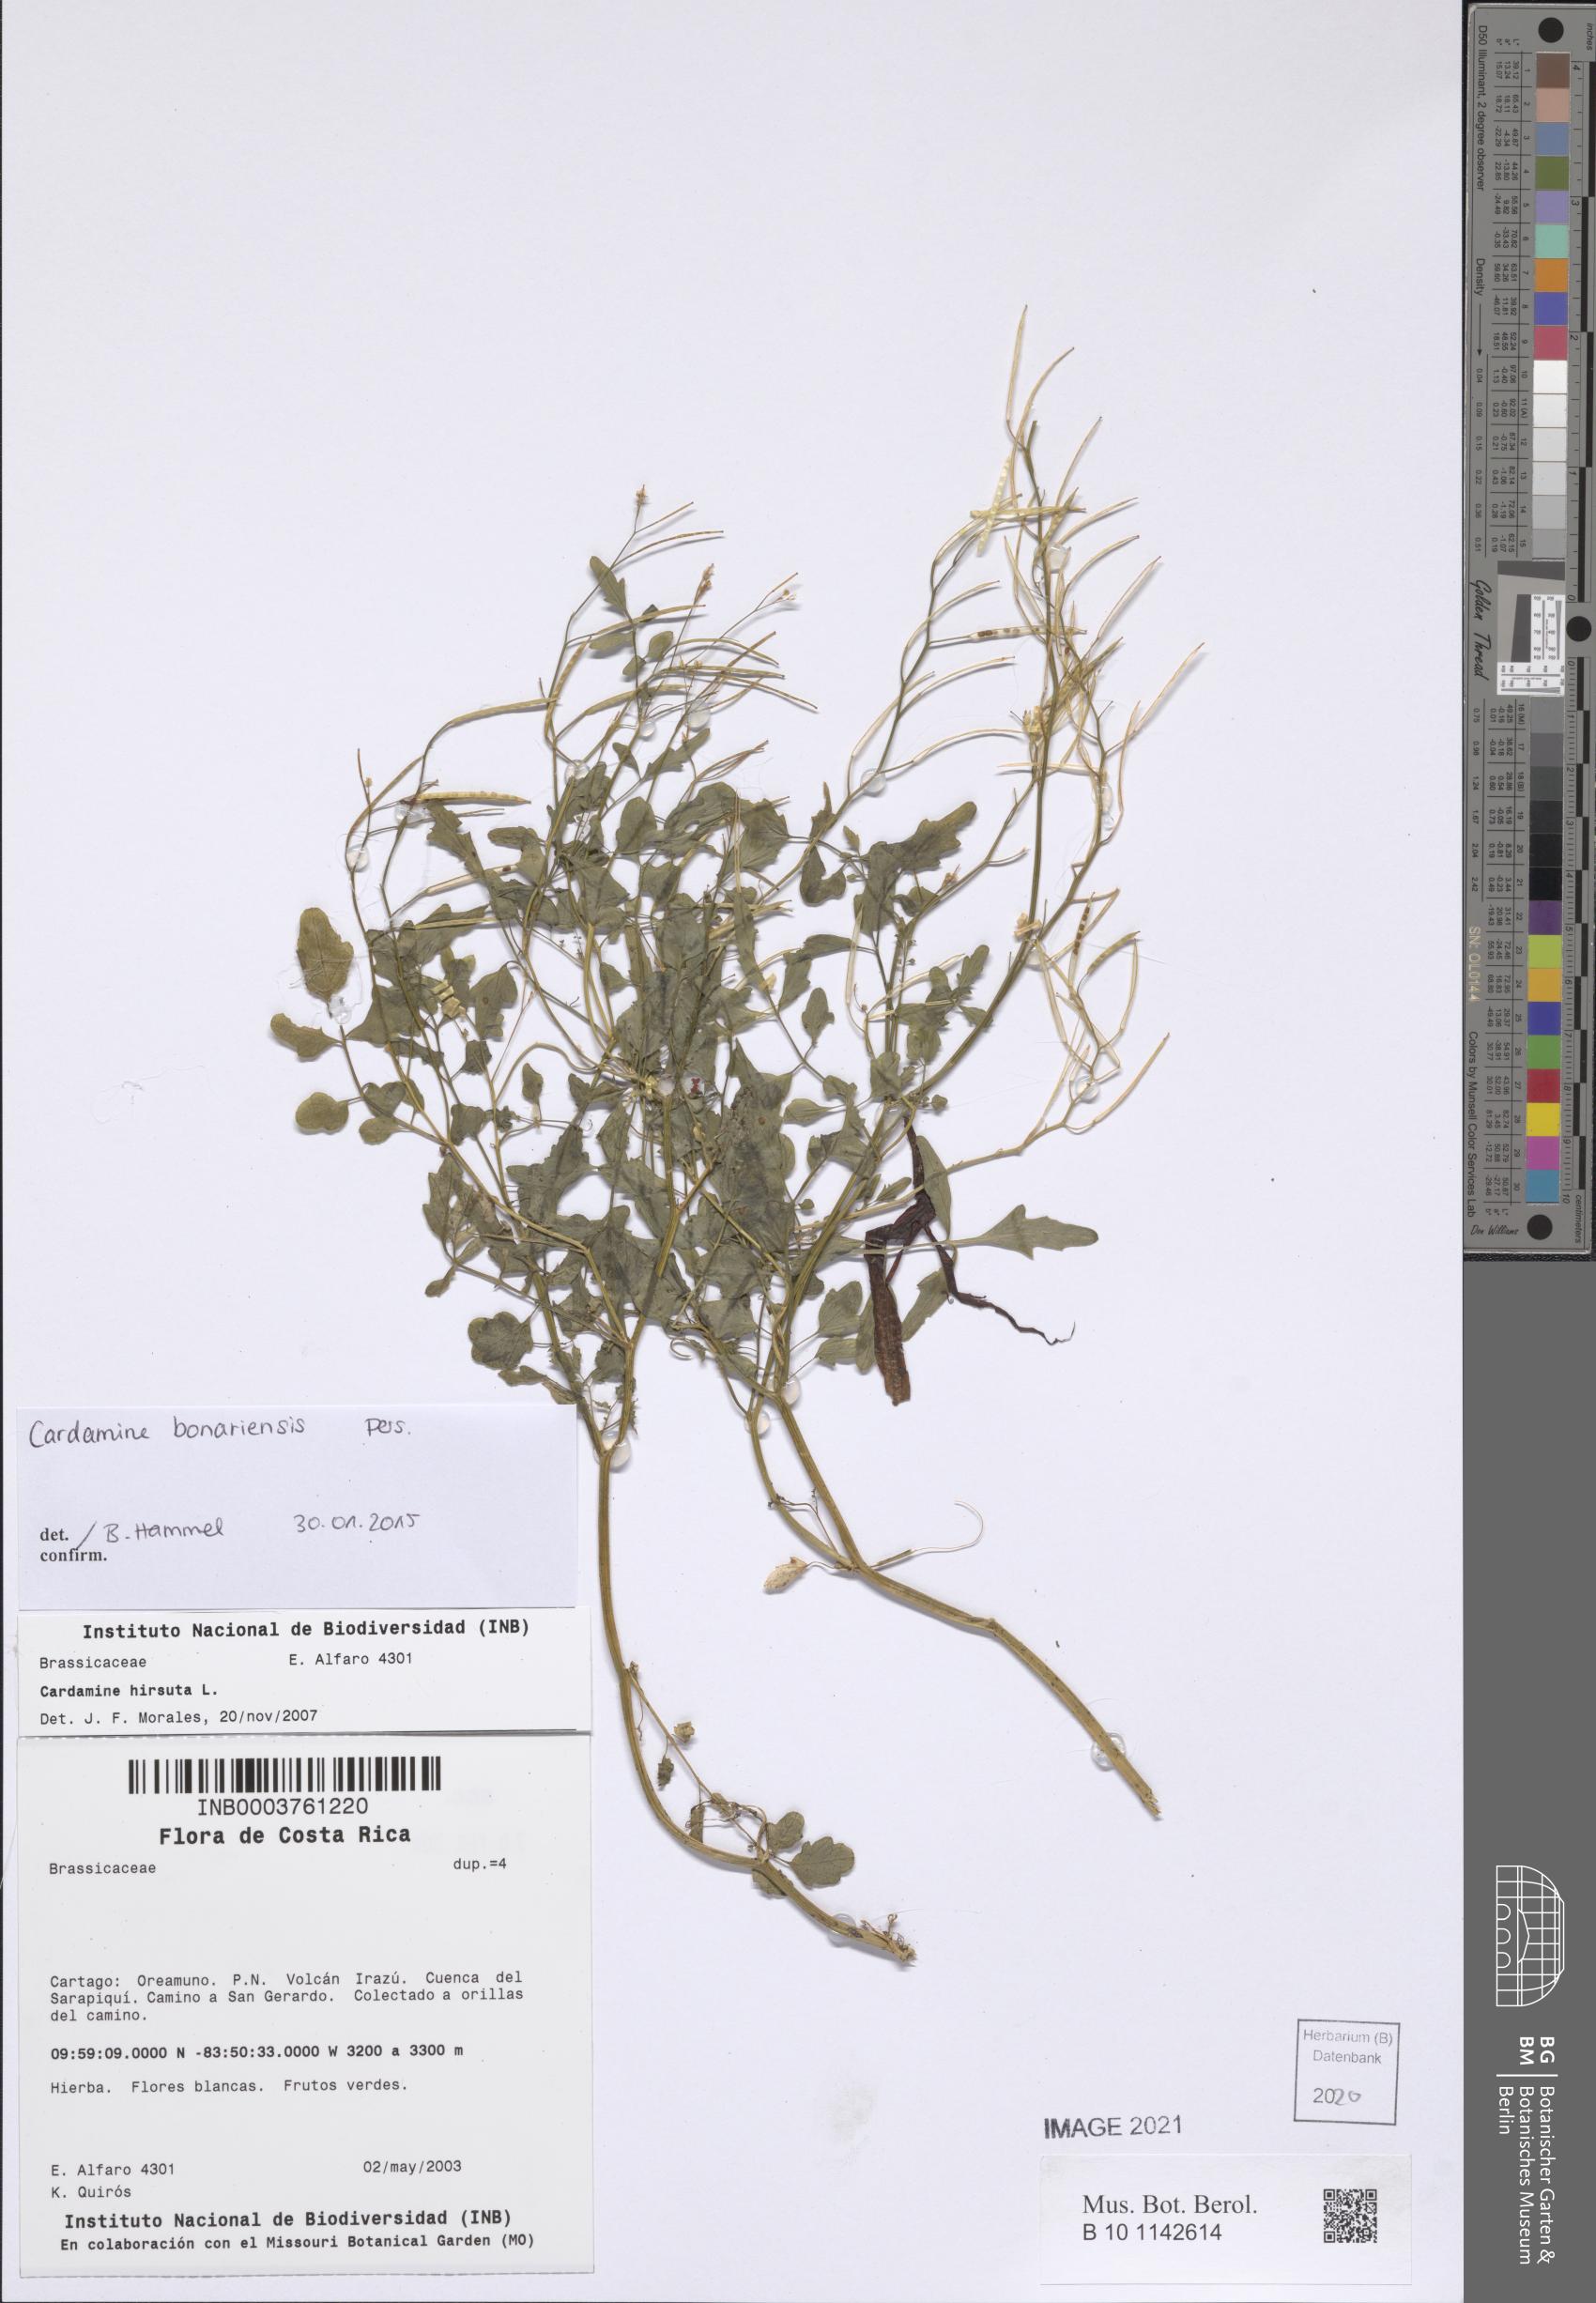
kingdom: Plantae
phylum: Tracheophyta
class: Magnoliopsida
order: Brassicales
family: Brassicaceae
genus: Cardamine
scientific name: Cardamine bonariensis
